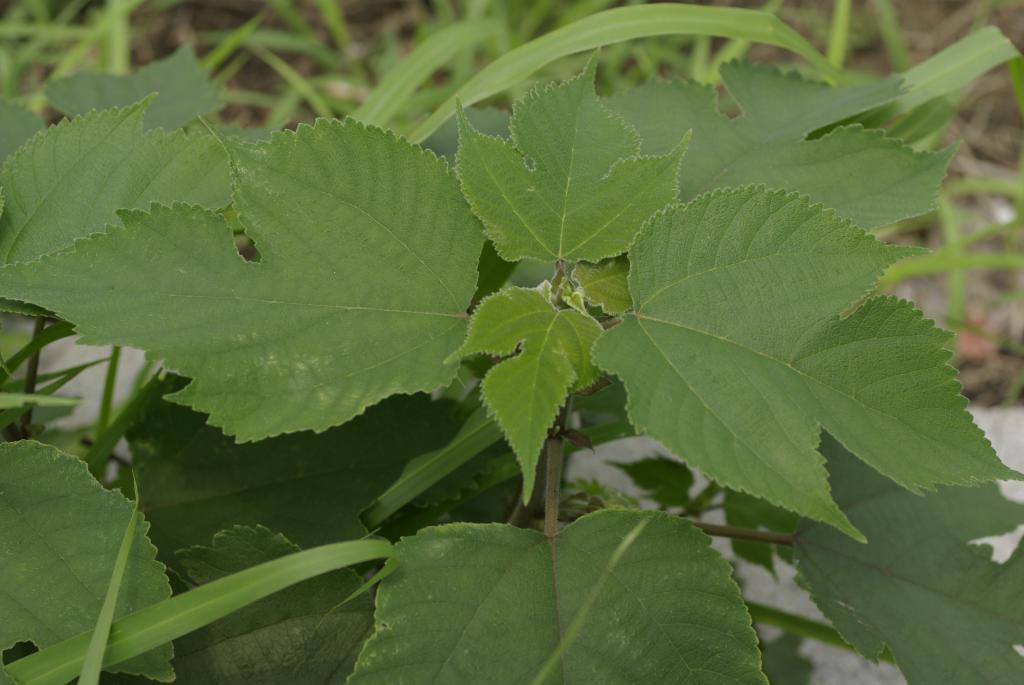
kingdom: Plantae
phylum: Tracheophyta
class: Magnoliopsida
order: Rosales
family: Moraceae
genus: Broussonetia
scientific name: Broussonetia papyrifera
